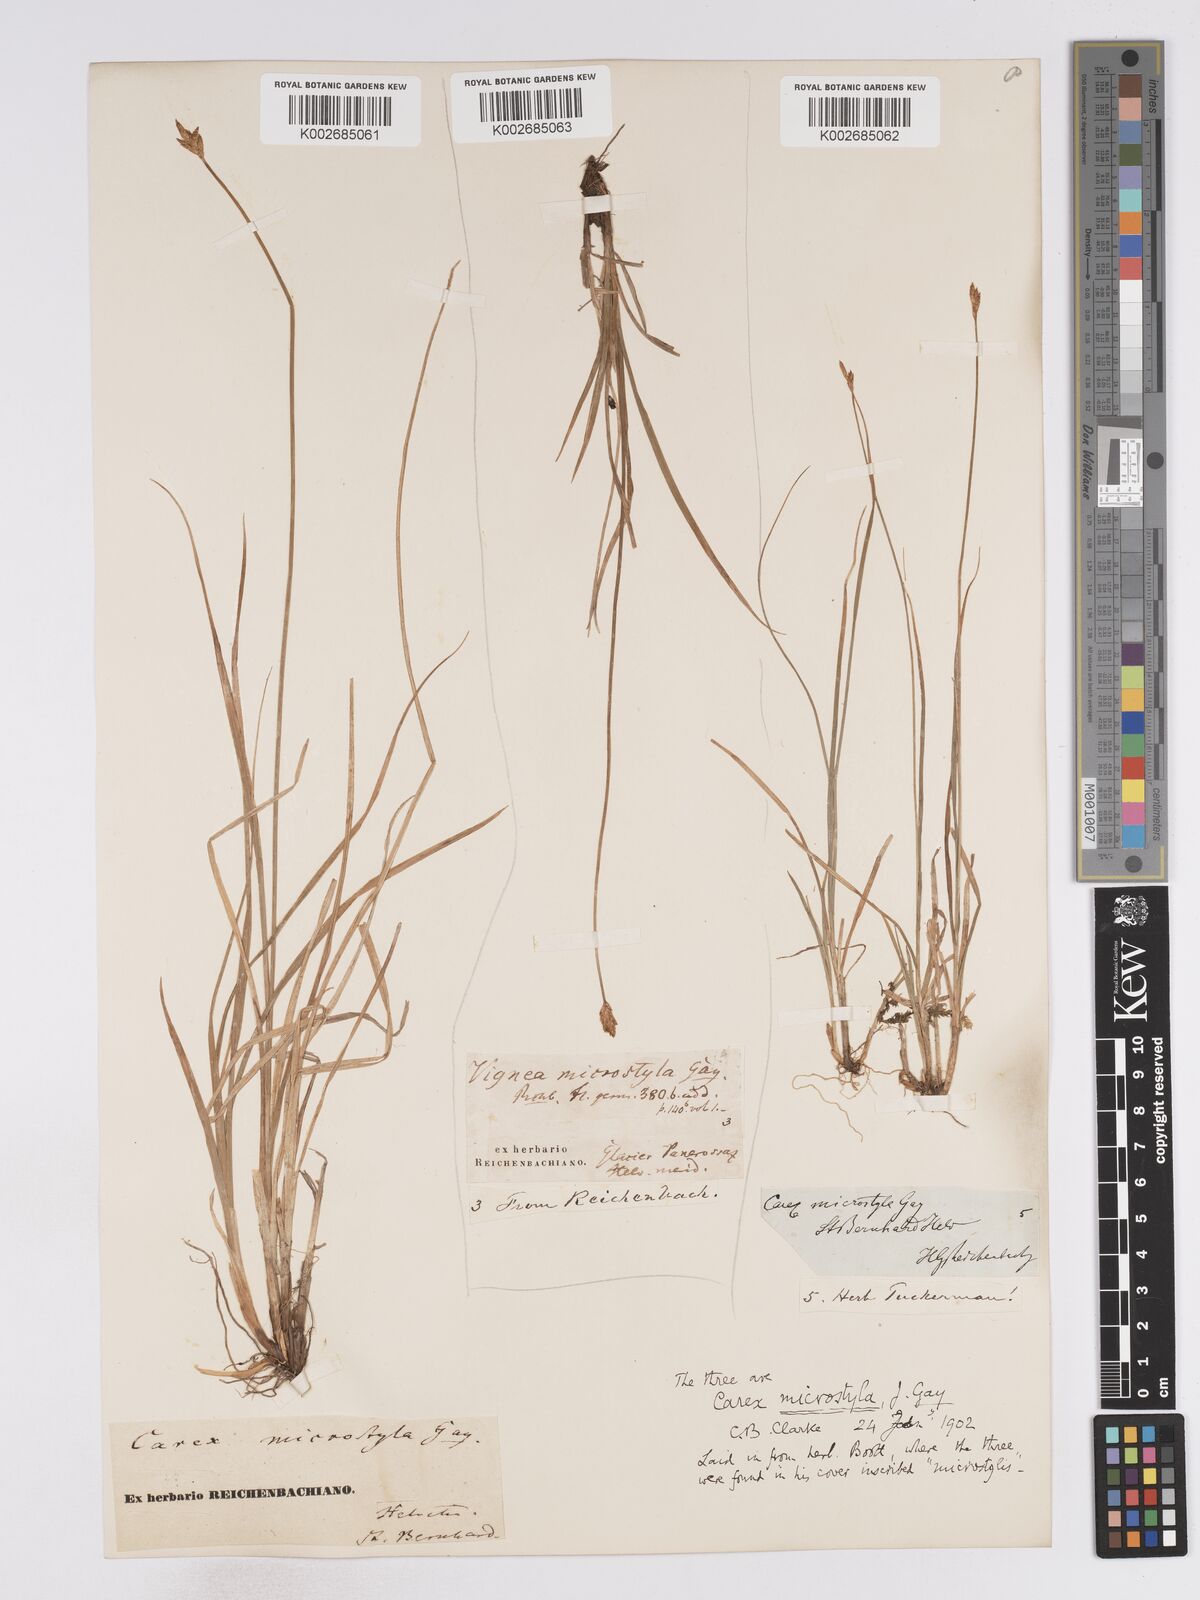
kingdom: Plantae
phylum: Tracheophyta
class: Liliopsida
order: Poales
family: Cyperaceae
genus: Carex
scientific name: Carex microstyla
